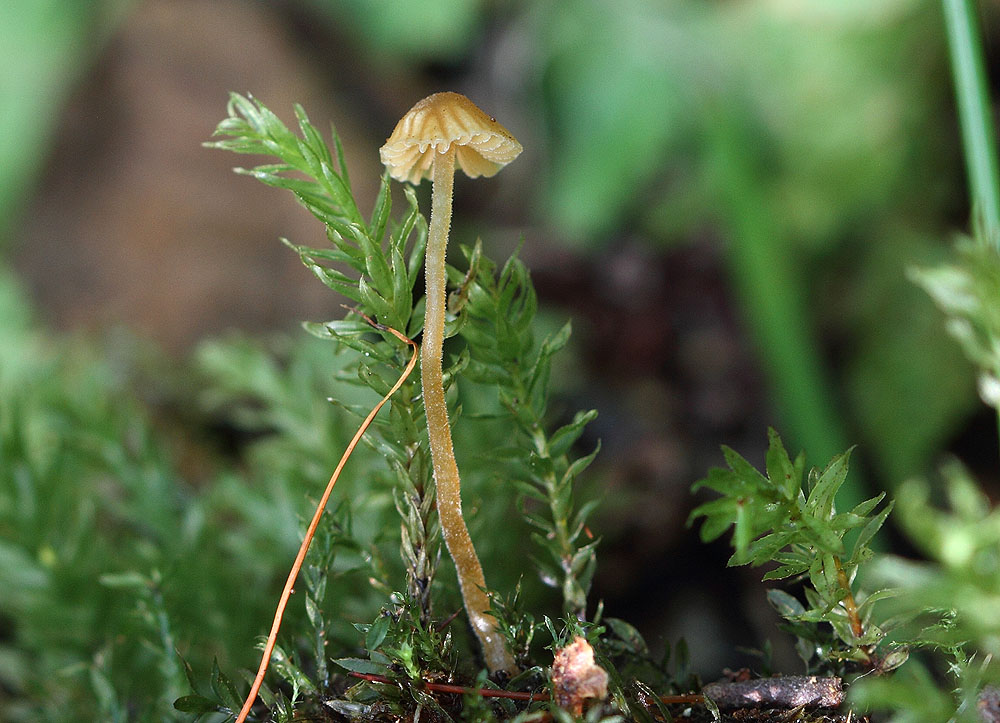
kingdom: Fungi
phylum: Basidiomycota
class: Agaricomycetes
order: Agaricales
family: Hymenogastraceae
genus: Galerina
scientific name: Galerina atkinsoniana
